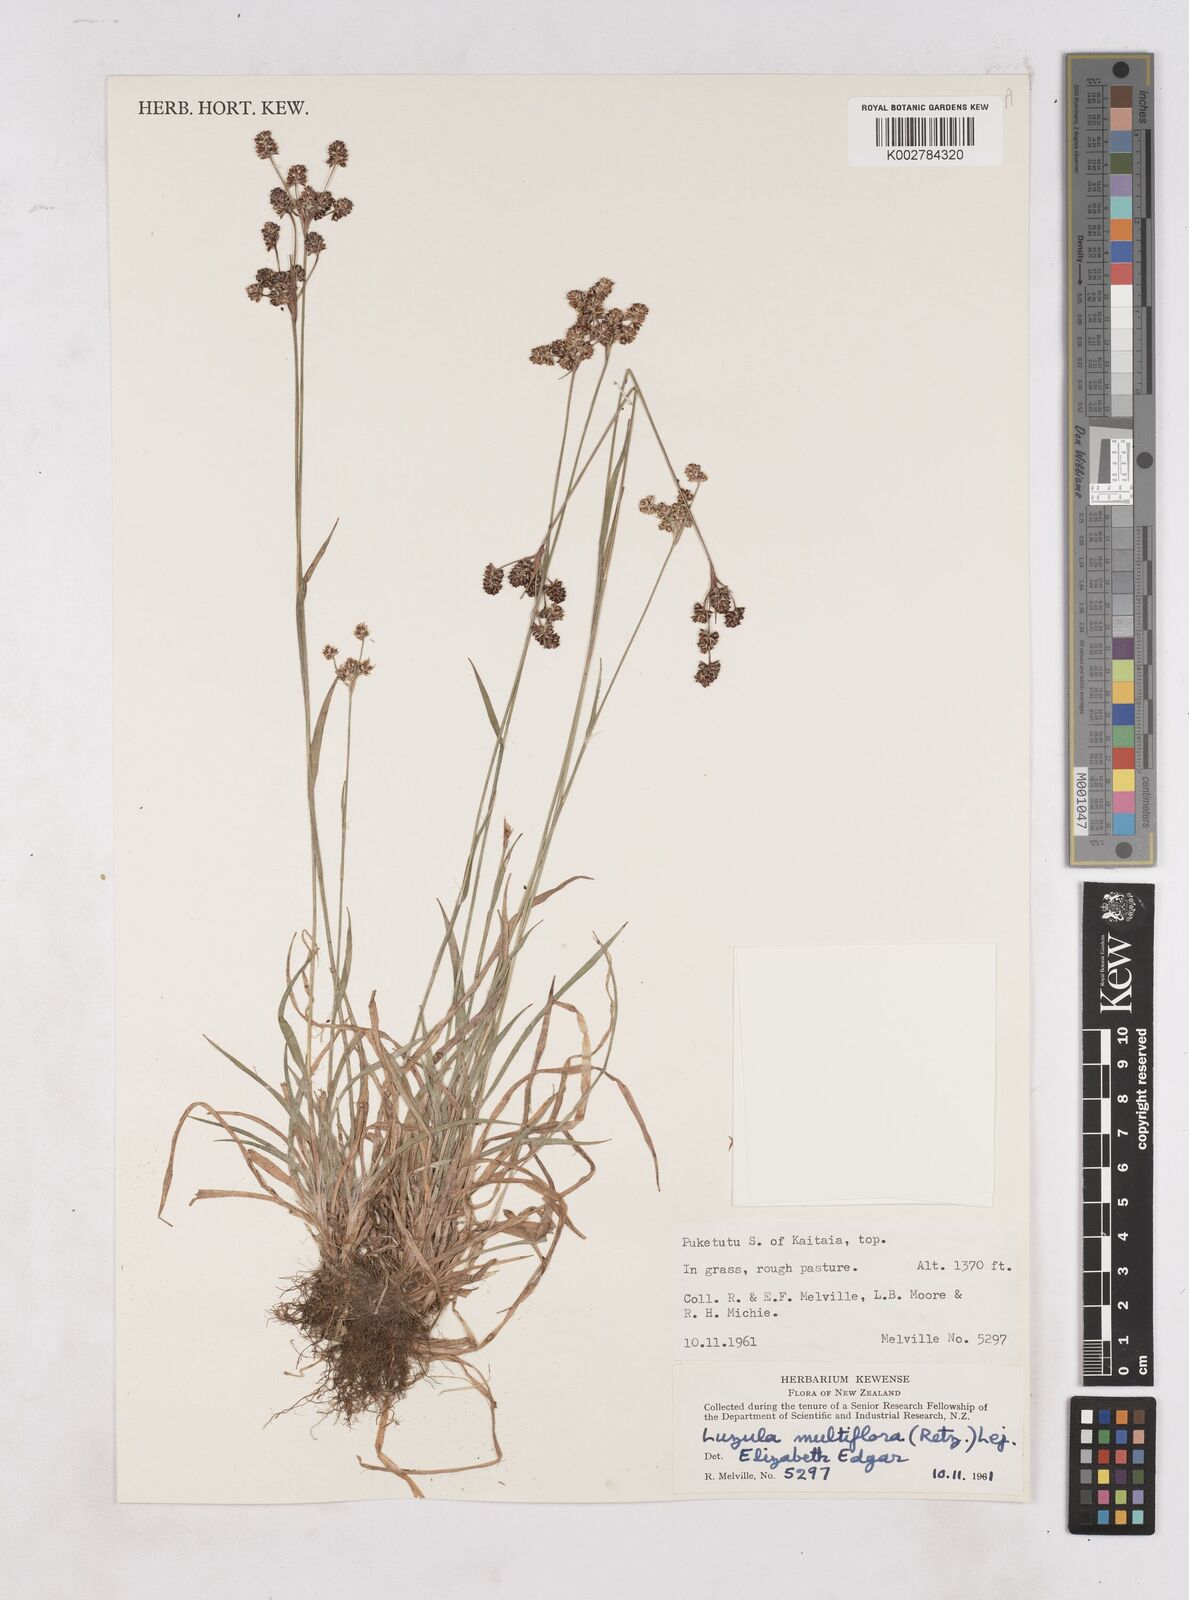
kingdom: Plantae
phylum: Tracheophyta
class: Liliopsida
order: Poales
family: Juncaceae
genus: Luzula
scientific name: Luzula multiflora
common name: Heath wood-rush
